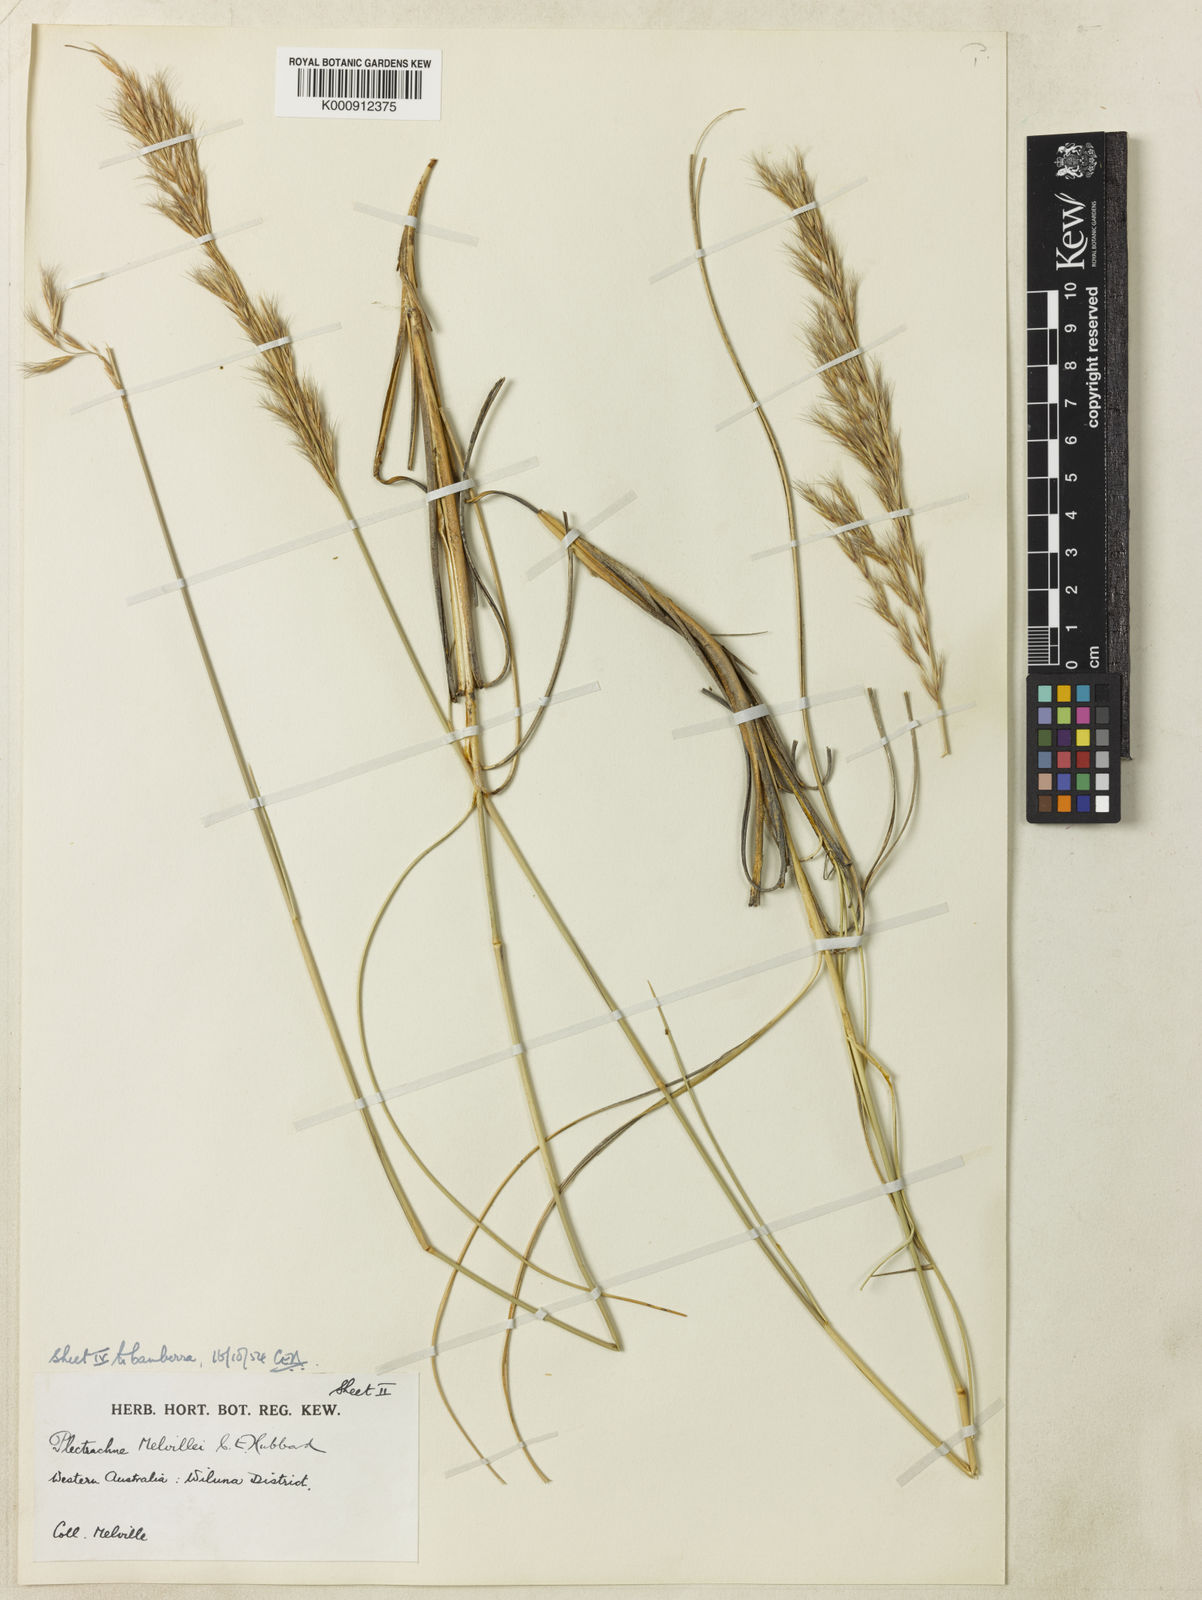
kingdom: Plantae
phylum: Tracheophyta
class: Liliopsida
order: Poales
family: Poaceae
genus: Triodia
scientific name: Triodia melvillei
